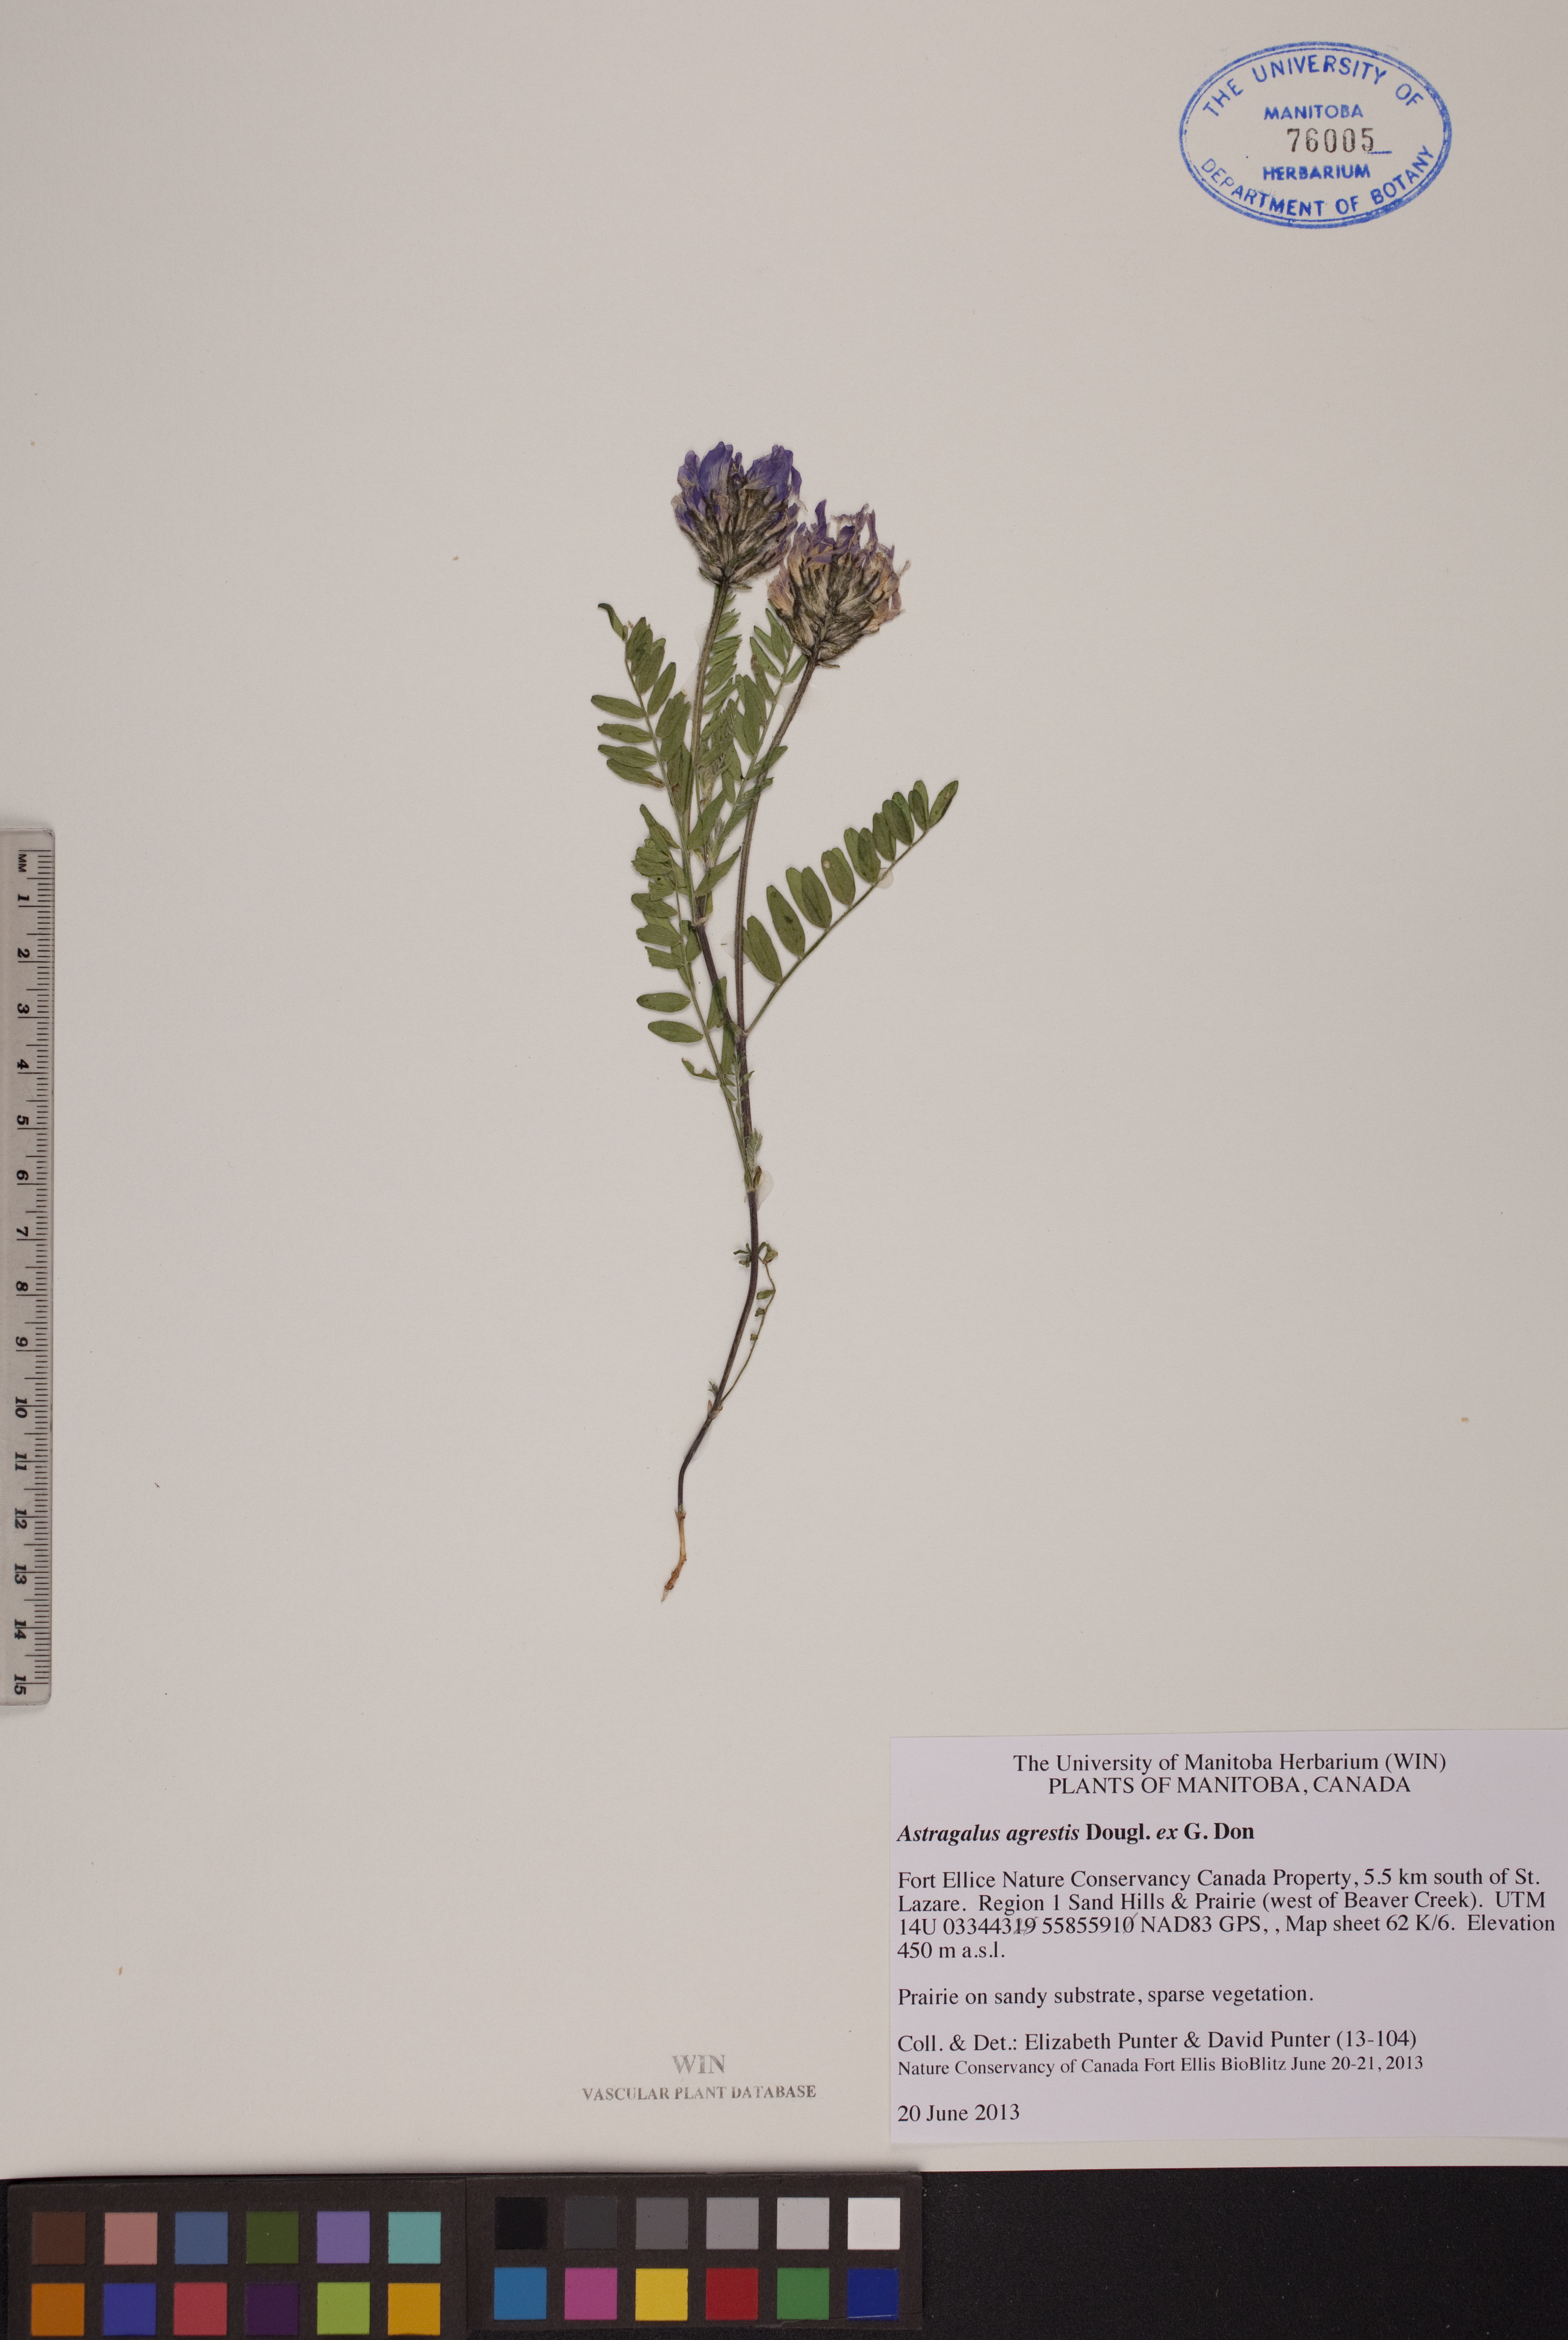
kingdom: Plantae
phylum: Tracheophyta
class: Magnoliopsida
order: Fabales
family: Fabaceae
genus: Astragalus
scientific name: Astragalus agrestis
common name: Field milk-vetch
